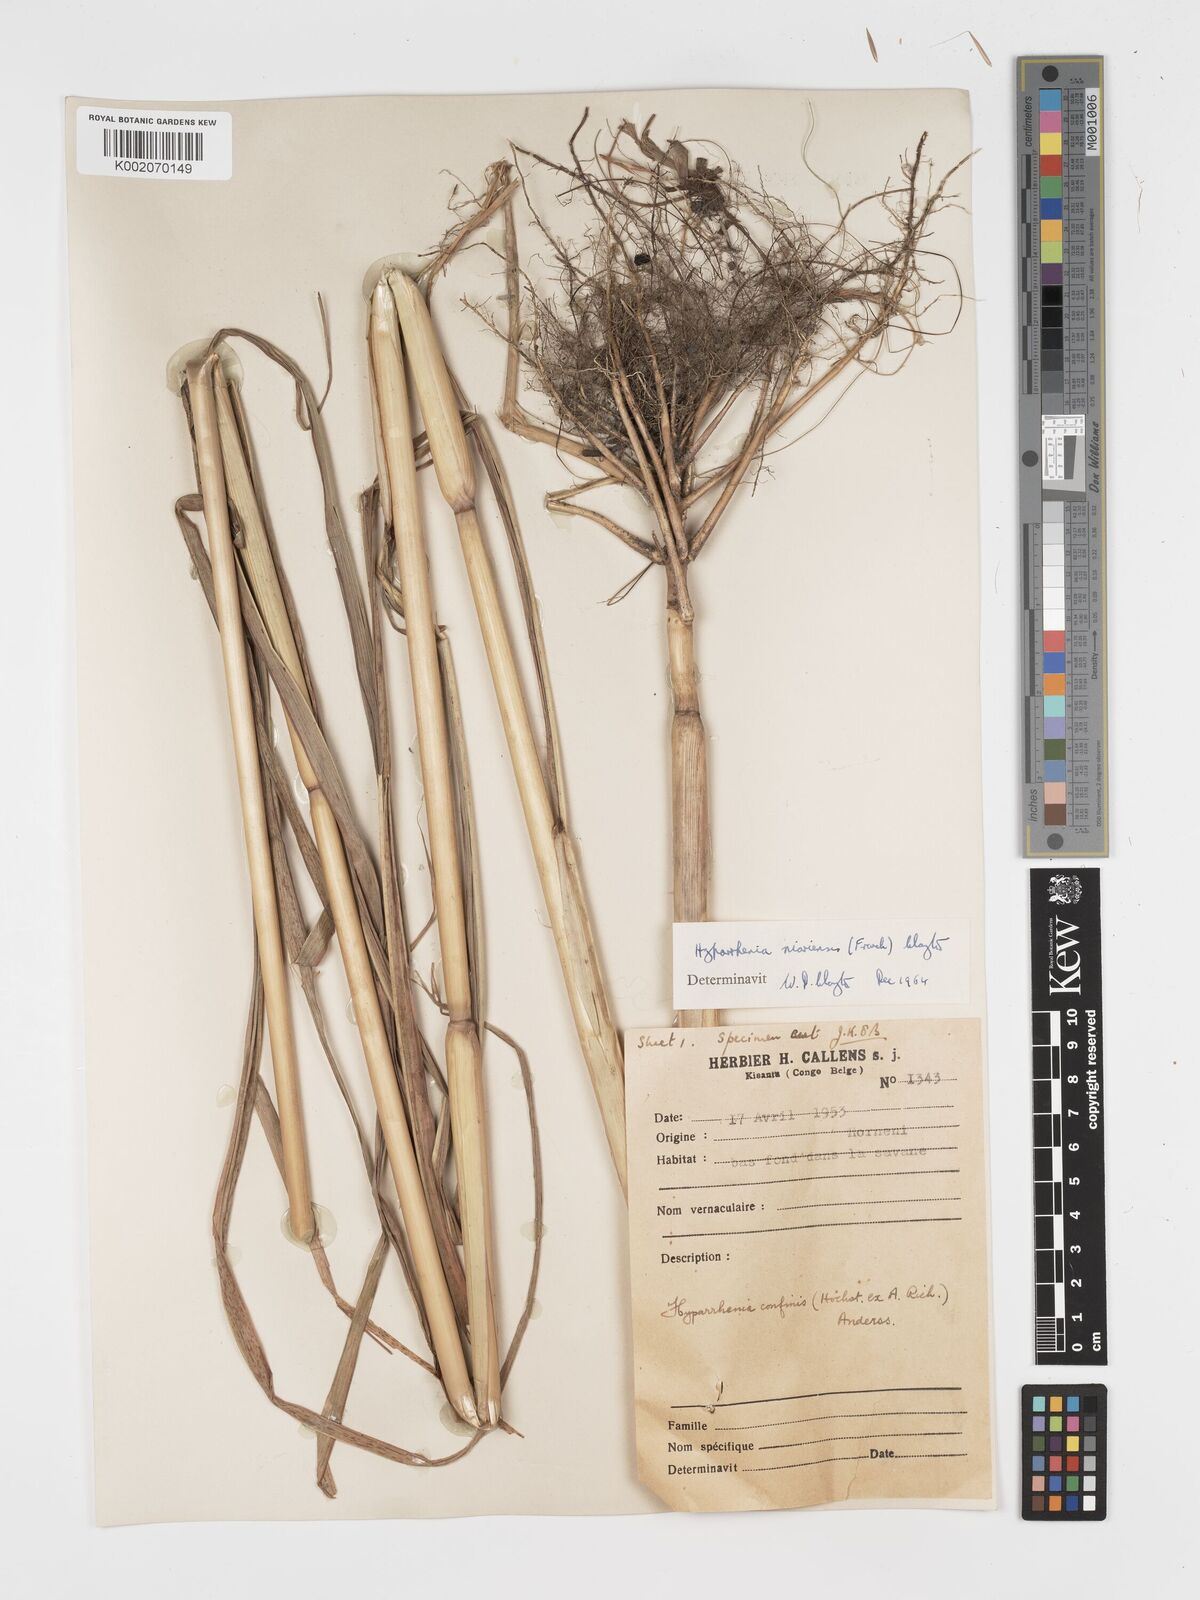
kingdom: Plantae
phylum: Tracheophyta
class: Liliopsida
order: Poales
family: Poaceae
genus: Hyparrhenia
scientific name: Hyparrhenia niariensis
